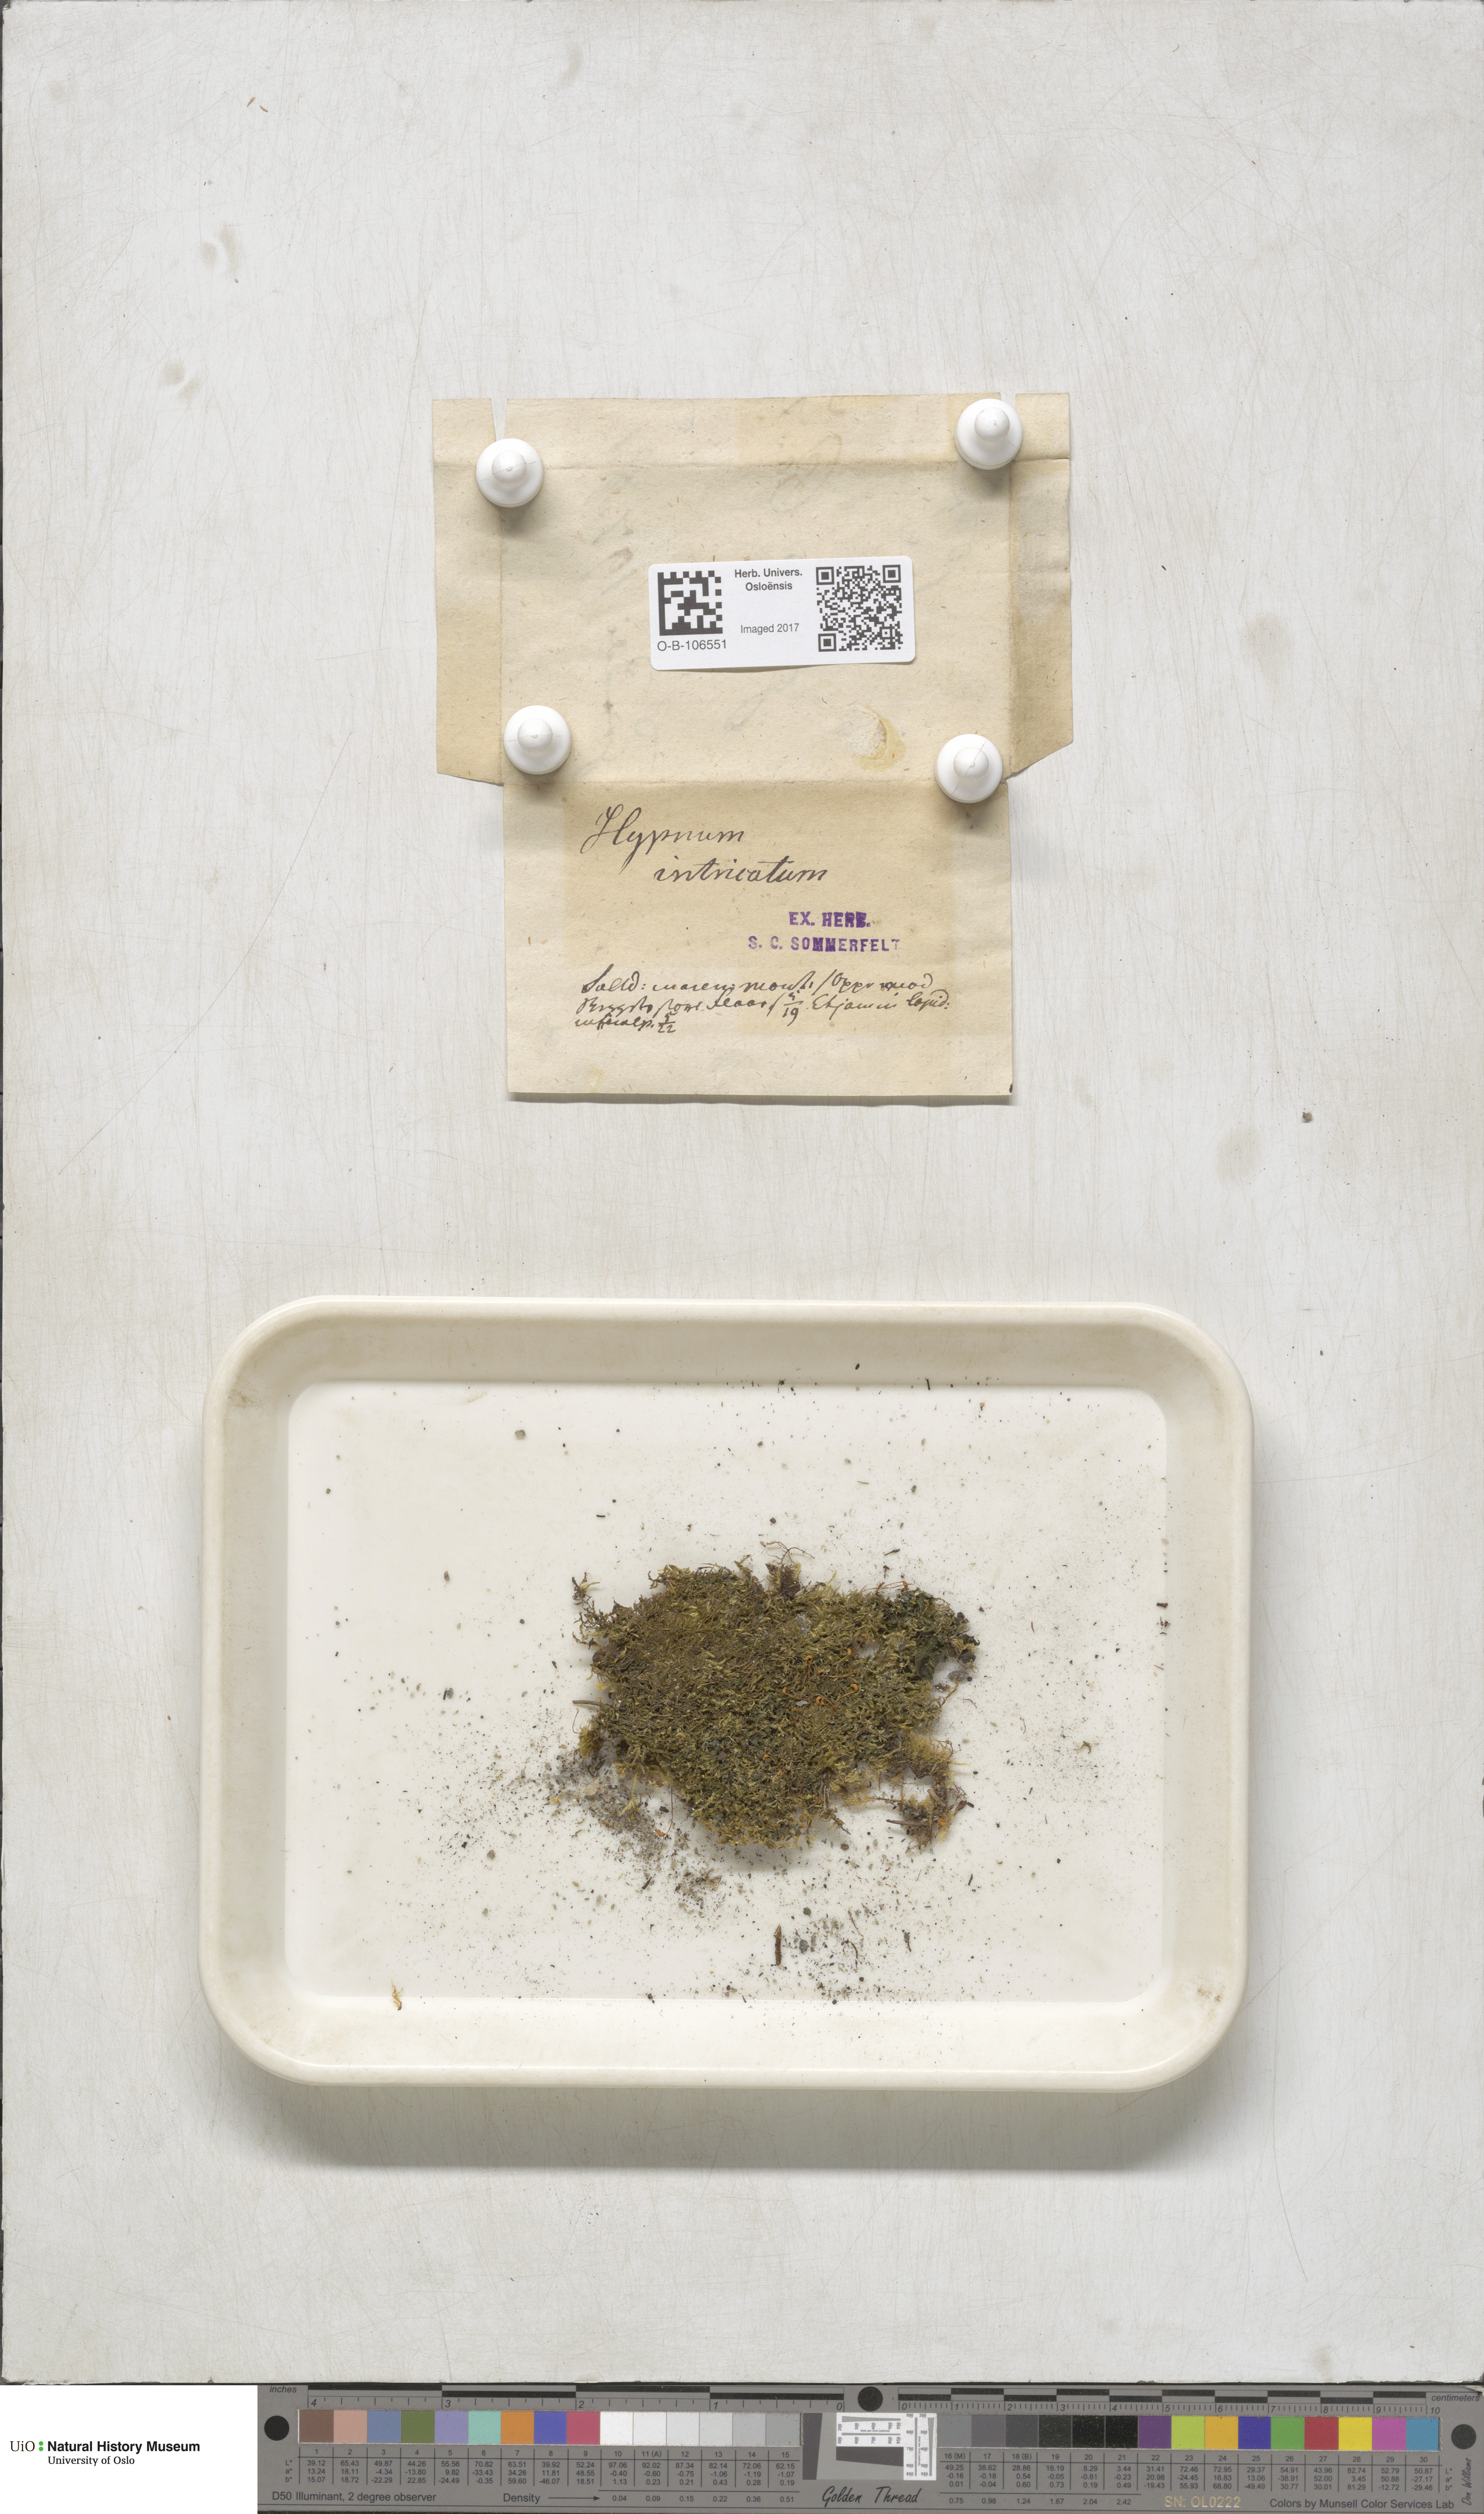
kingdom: Plantae
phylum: Bryophyta
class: Bryopsida
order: Hypnales
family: Plagiotheciaceae
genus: Orthothecium
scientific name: Orthothecium intricatum
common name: Fine-leaved erect-capsule moss
